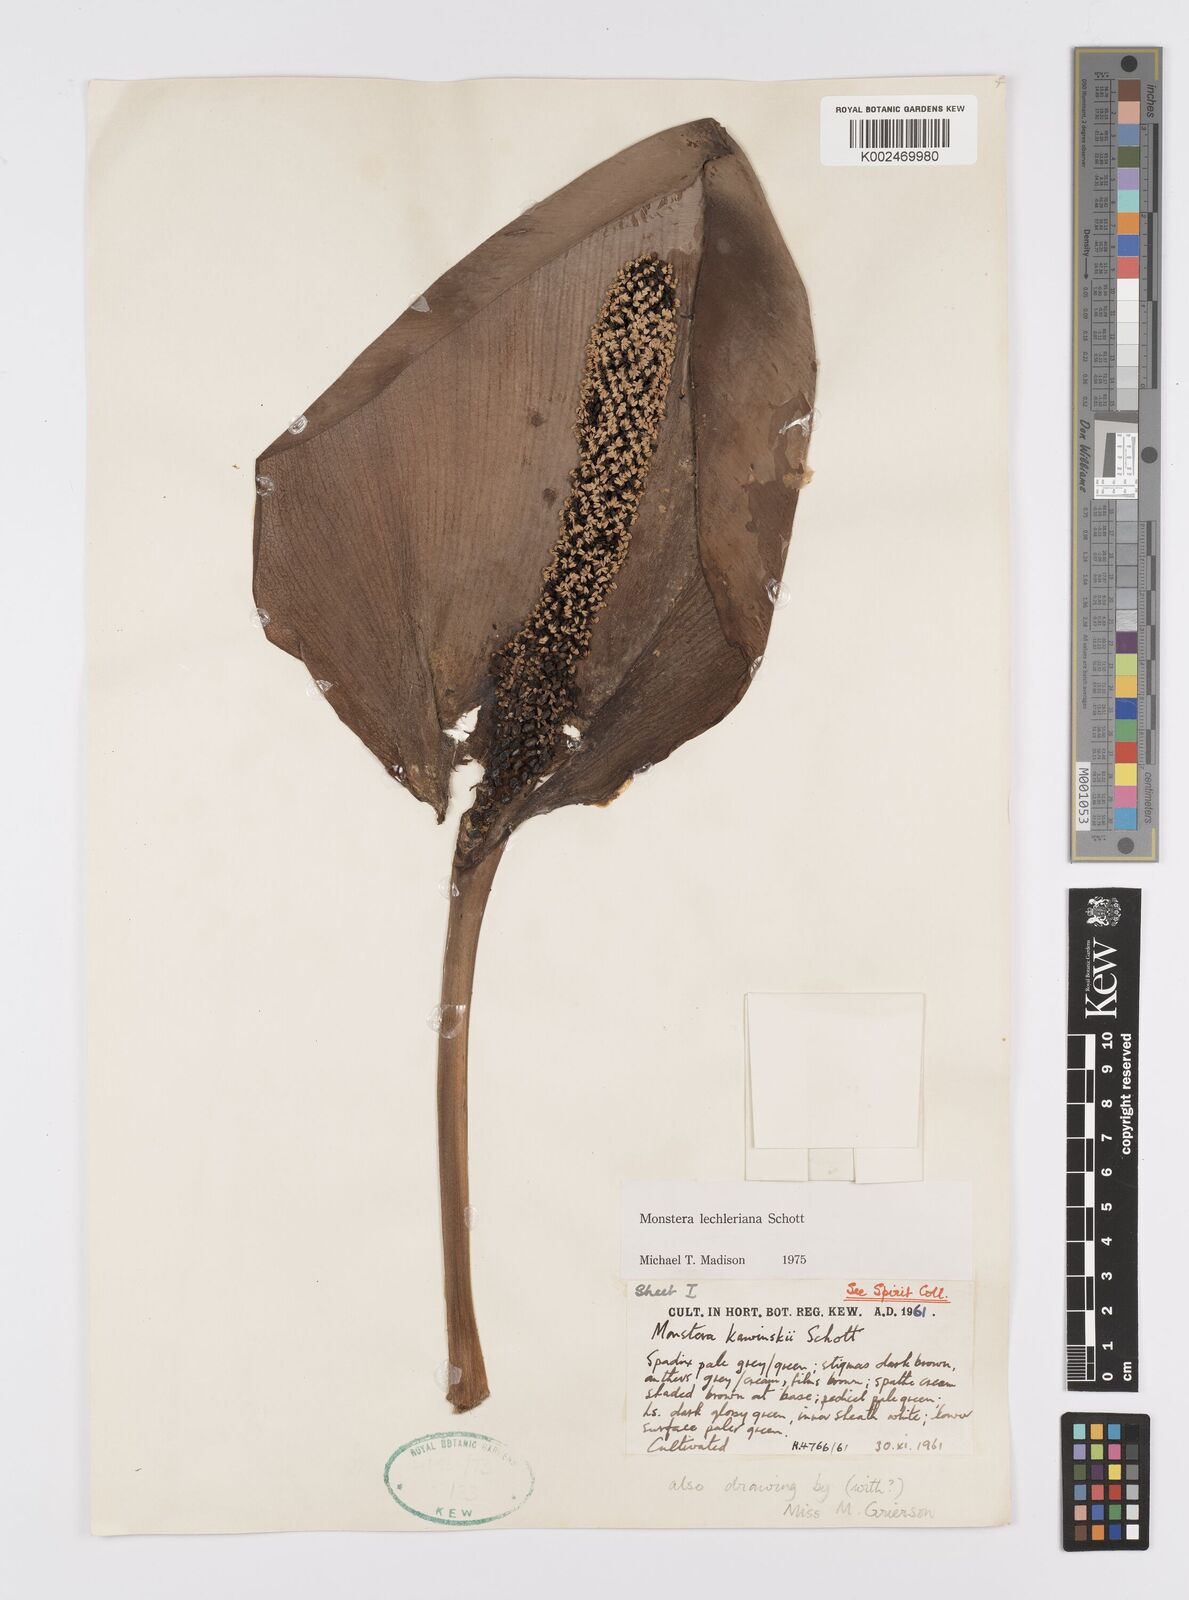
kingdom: Plantae
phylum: Tracheophyta
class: Liliopsida
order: Alismatales
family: Araceae
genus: Monstera
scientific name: Monstera lechleriana
